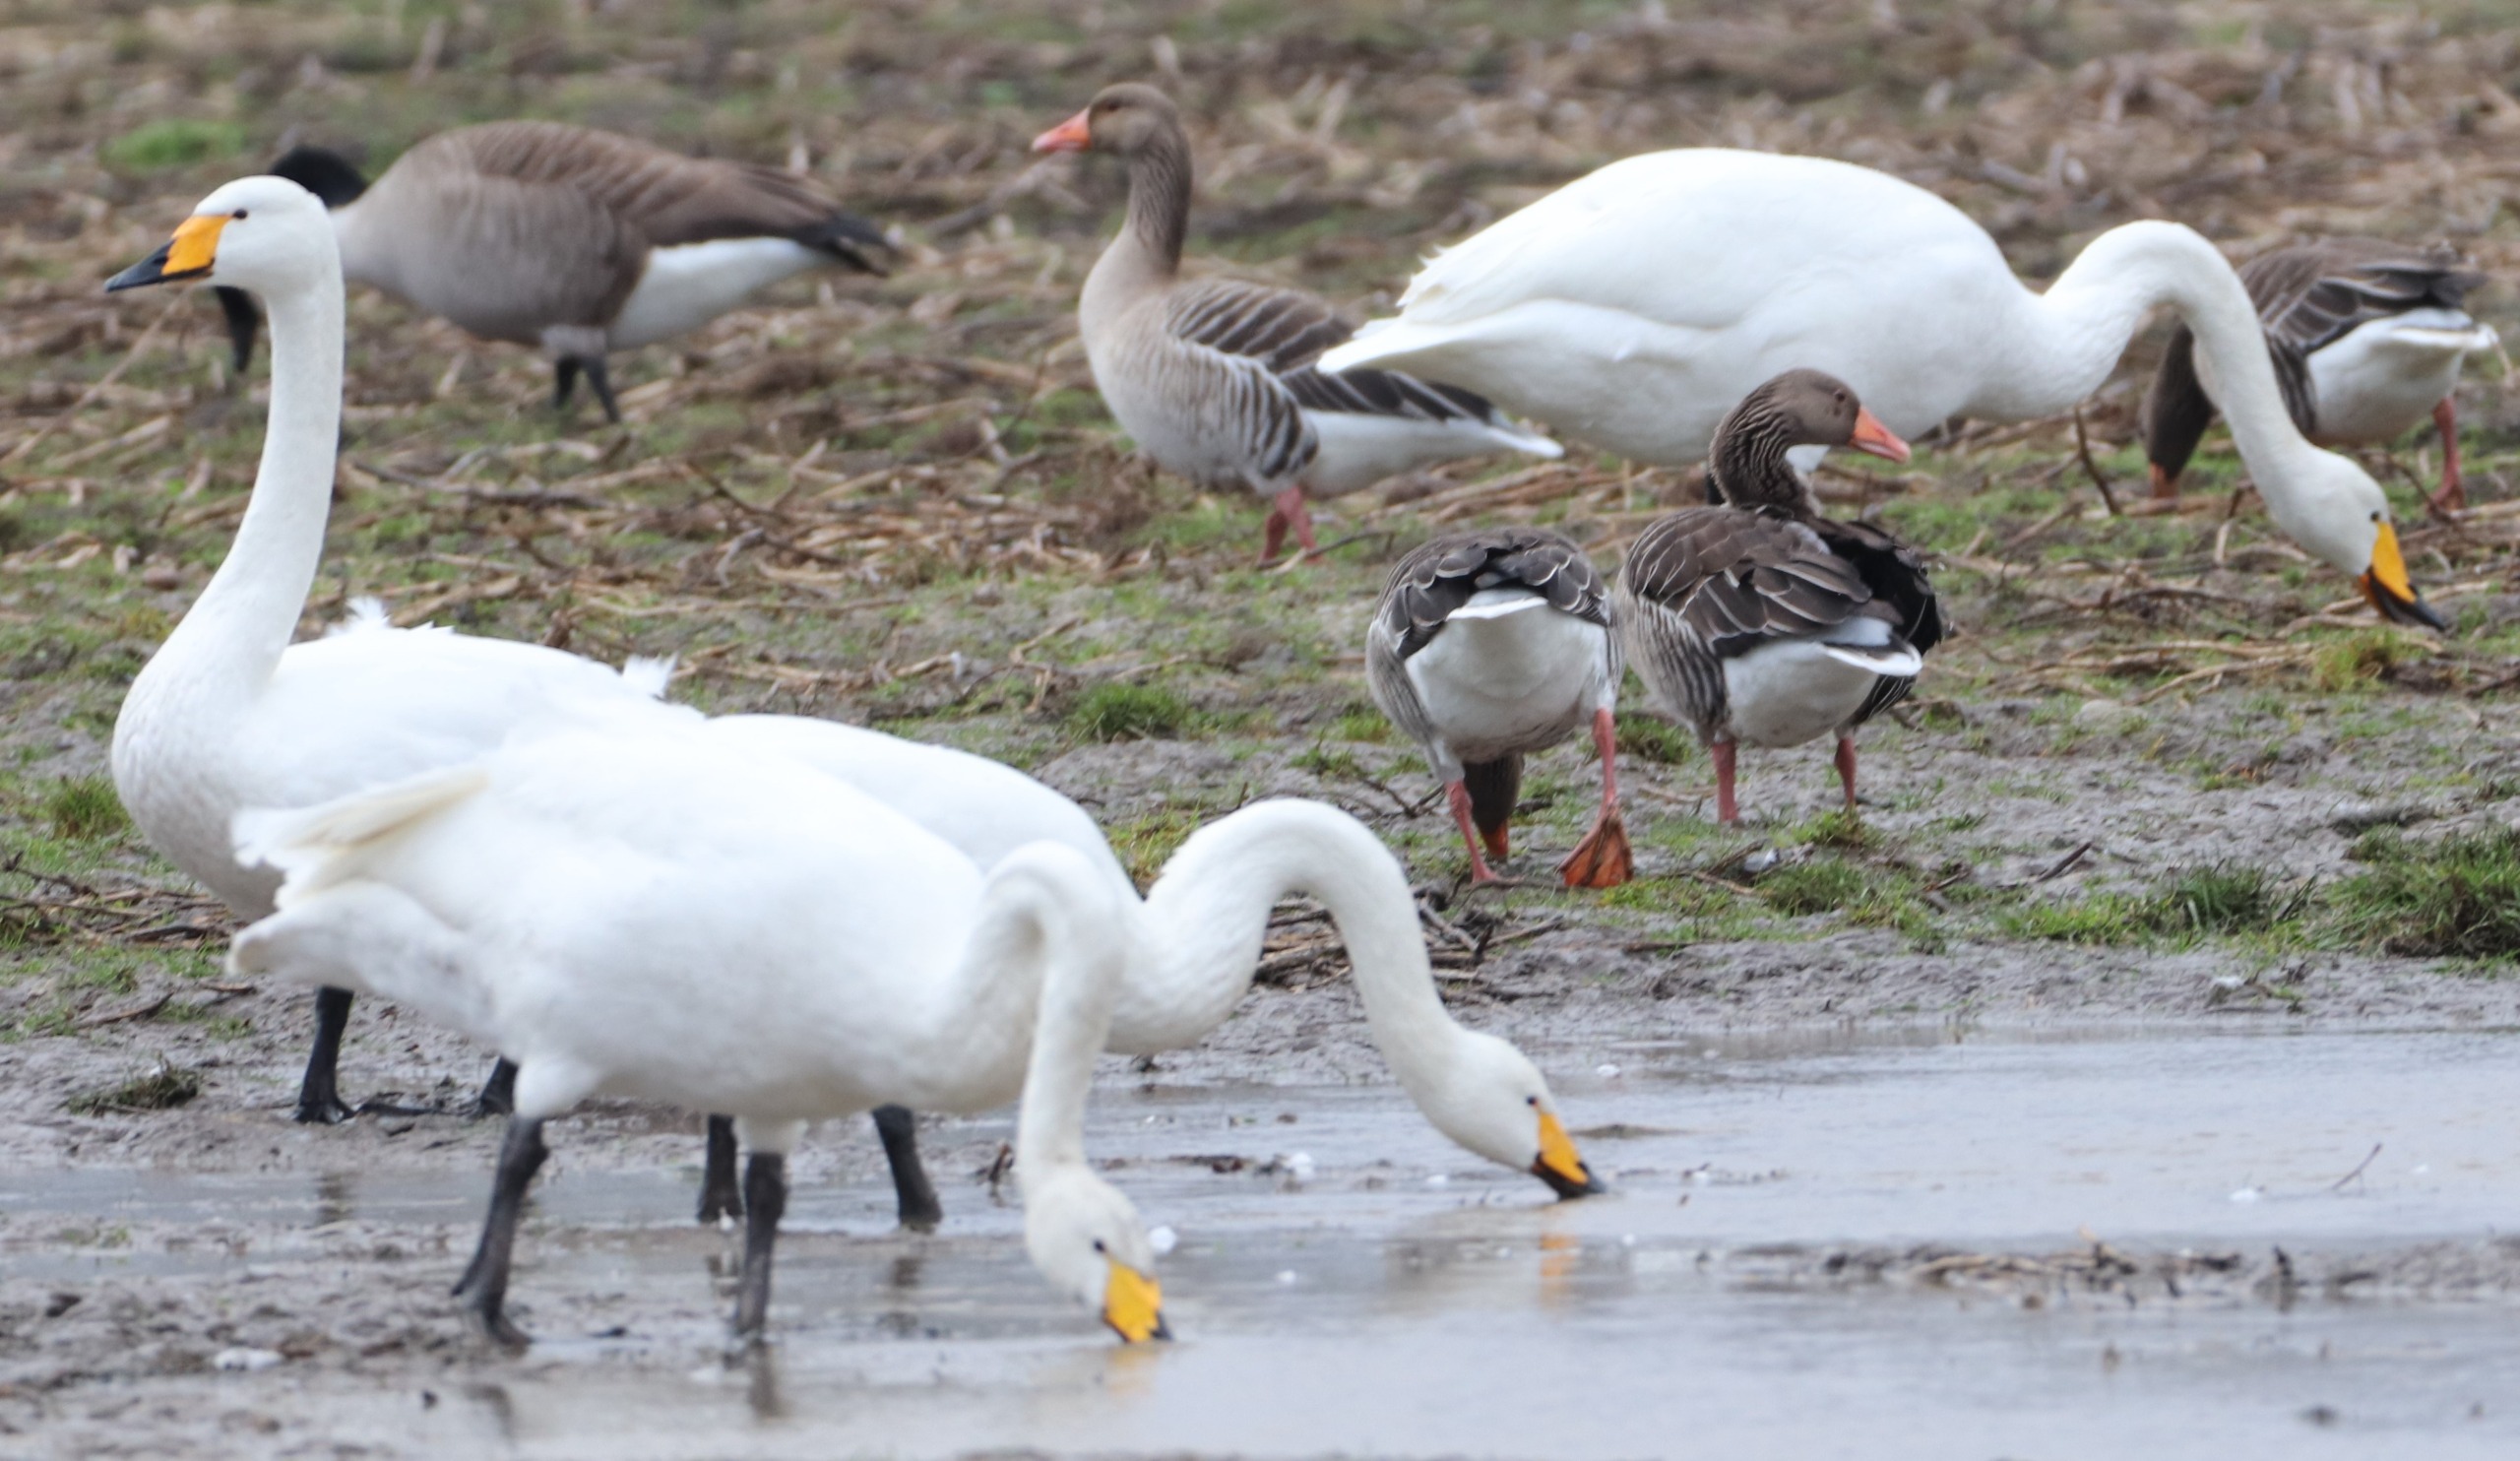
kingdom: Animalia
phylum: Chordata
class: Aves
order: Anseriformes
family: Anatidae
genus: Cygnus
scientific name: Cygnus cygnus
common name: Sangsvane
